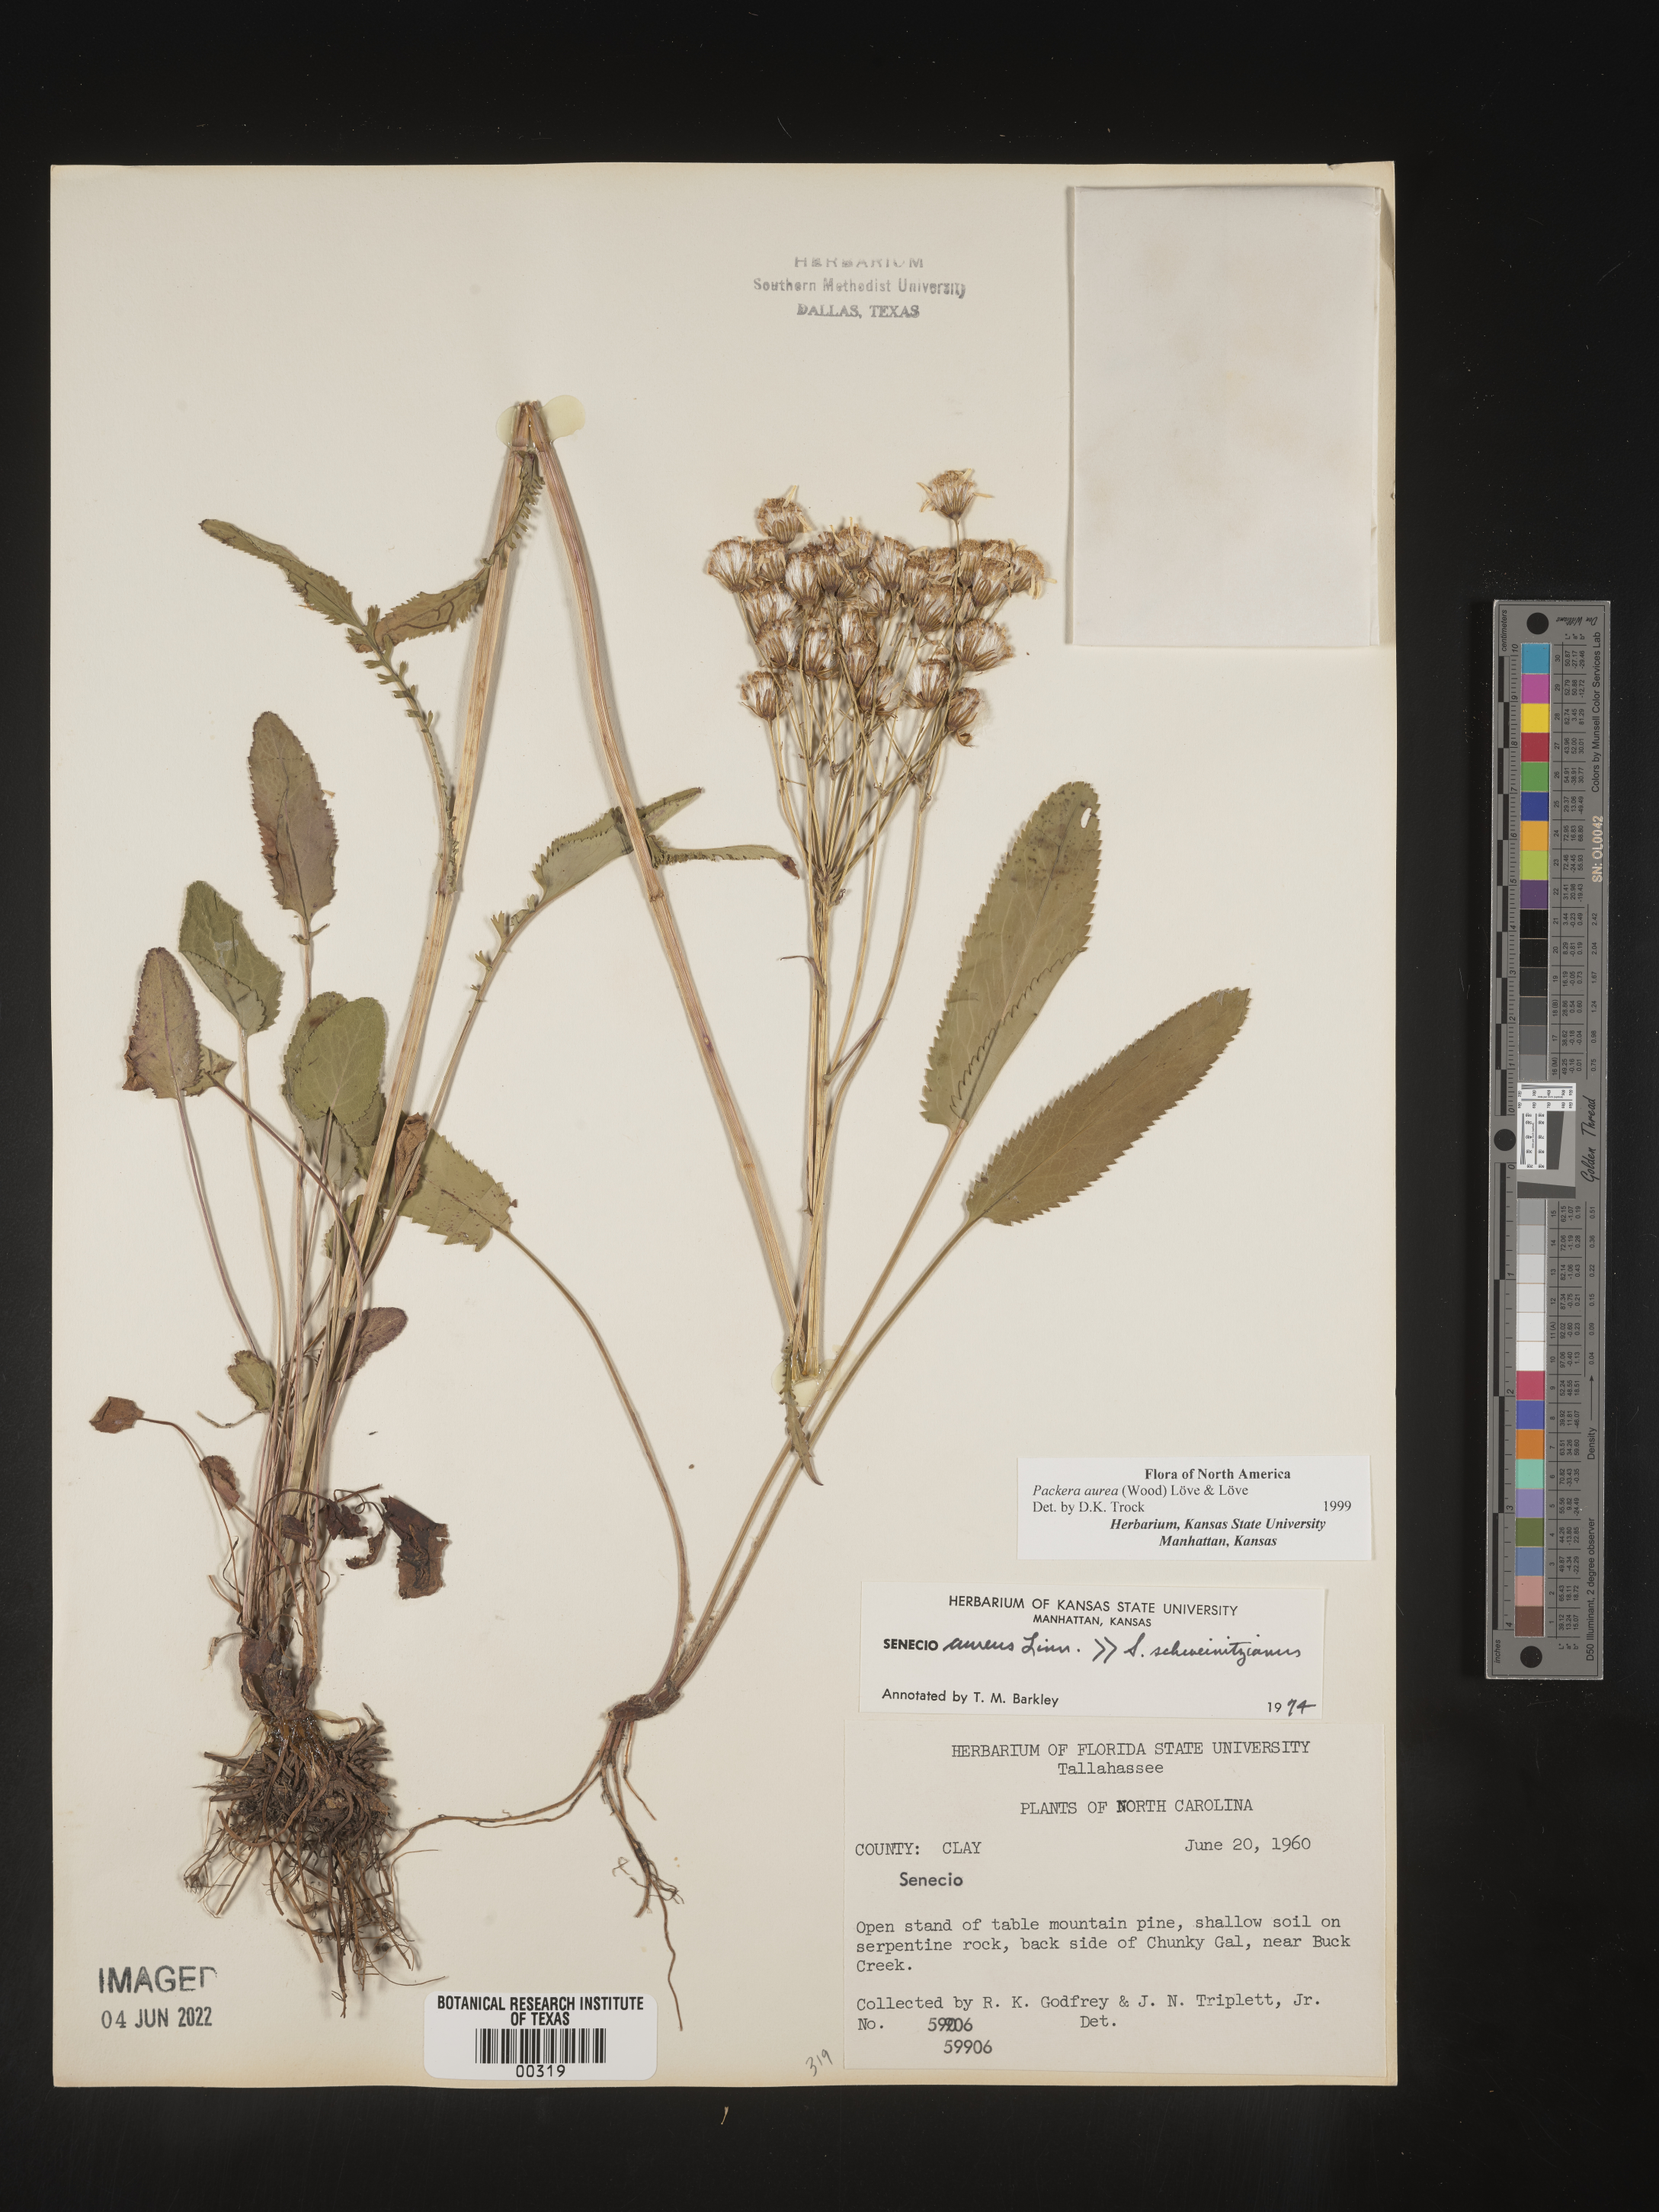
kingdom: Plantae
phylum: Tracheophyta
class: Magnoliopsida
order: Asterales
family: Asteraceae
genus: Packera
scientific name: Packera aurea
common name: Golden groundsel
